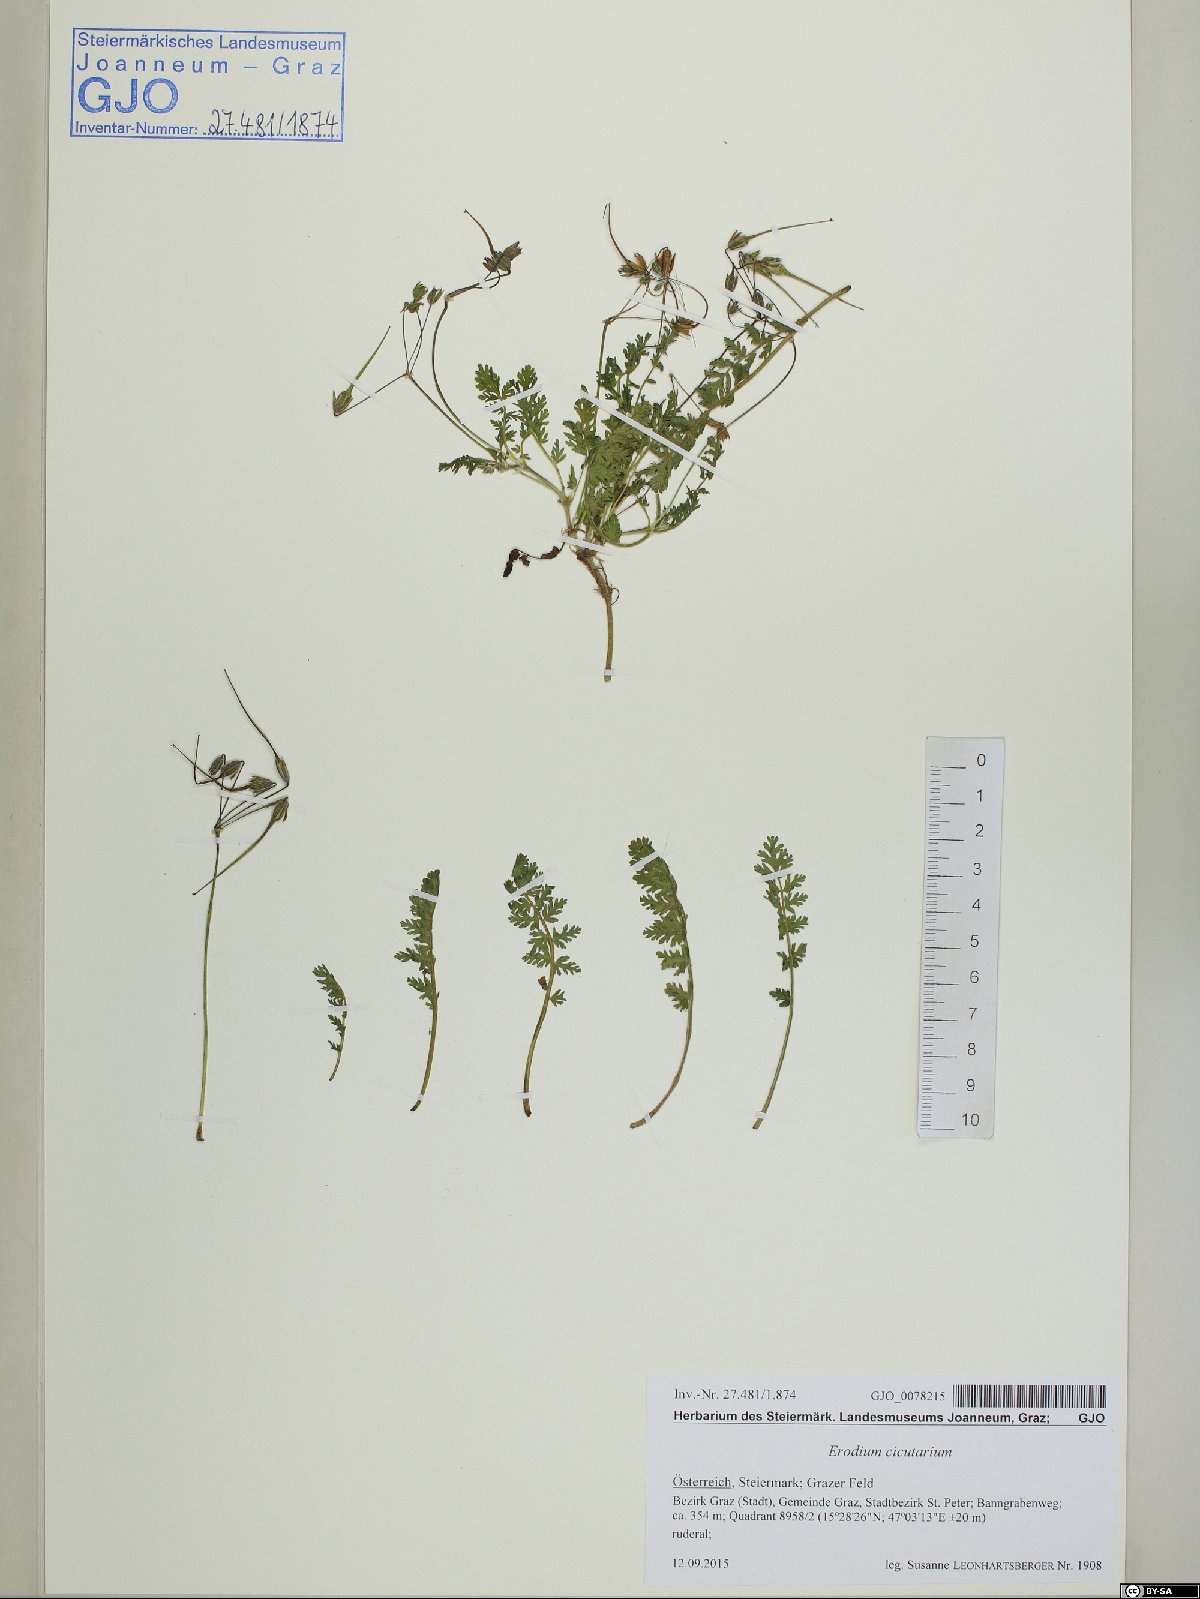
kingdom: Plantae
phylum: Tracheophyta
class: Magnoliopsida
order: Geraniales
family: Geraniaceae
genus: Erodium
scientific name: Erodium cicutarium
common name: Common stork's-bill
